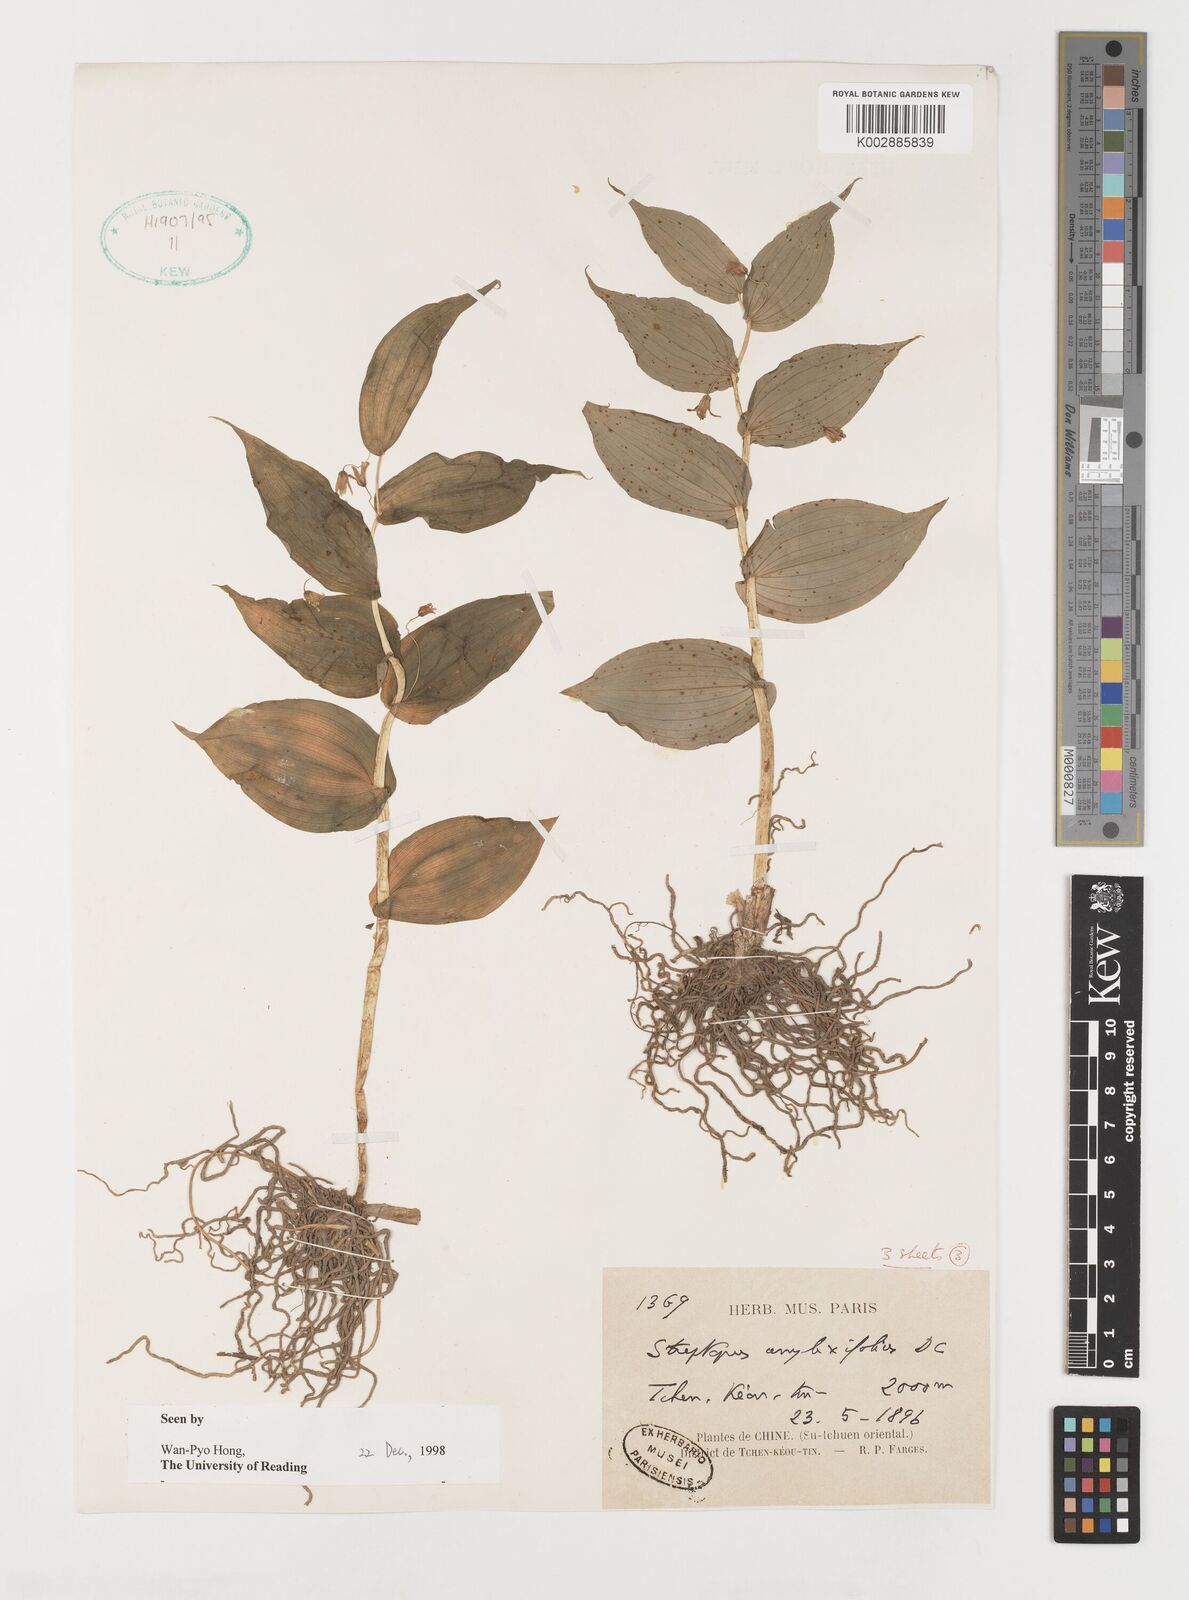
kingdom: Plantae
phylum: Tracheophyta
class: Liliopsida
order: Liliales
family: Liliaceae
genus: Streptopus
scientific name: Streptopus amplexifolius
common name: Clasp twisted stalk
